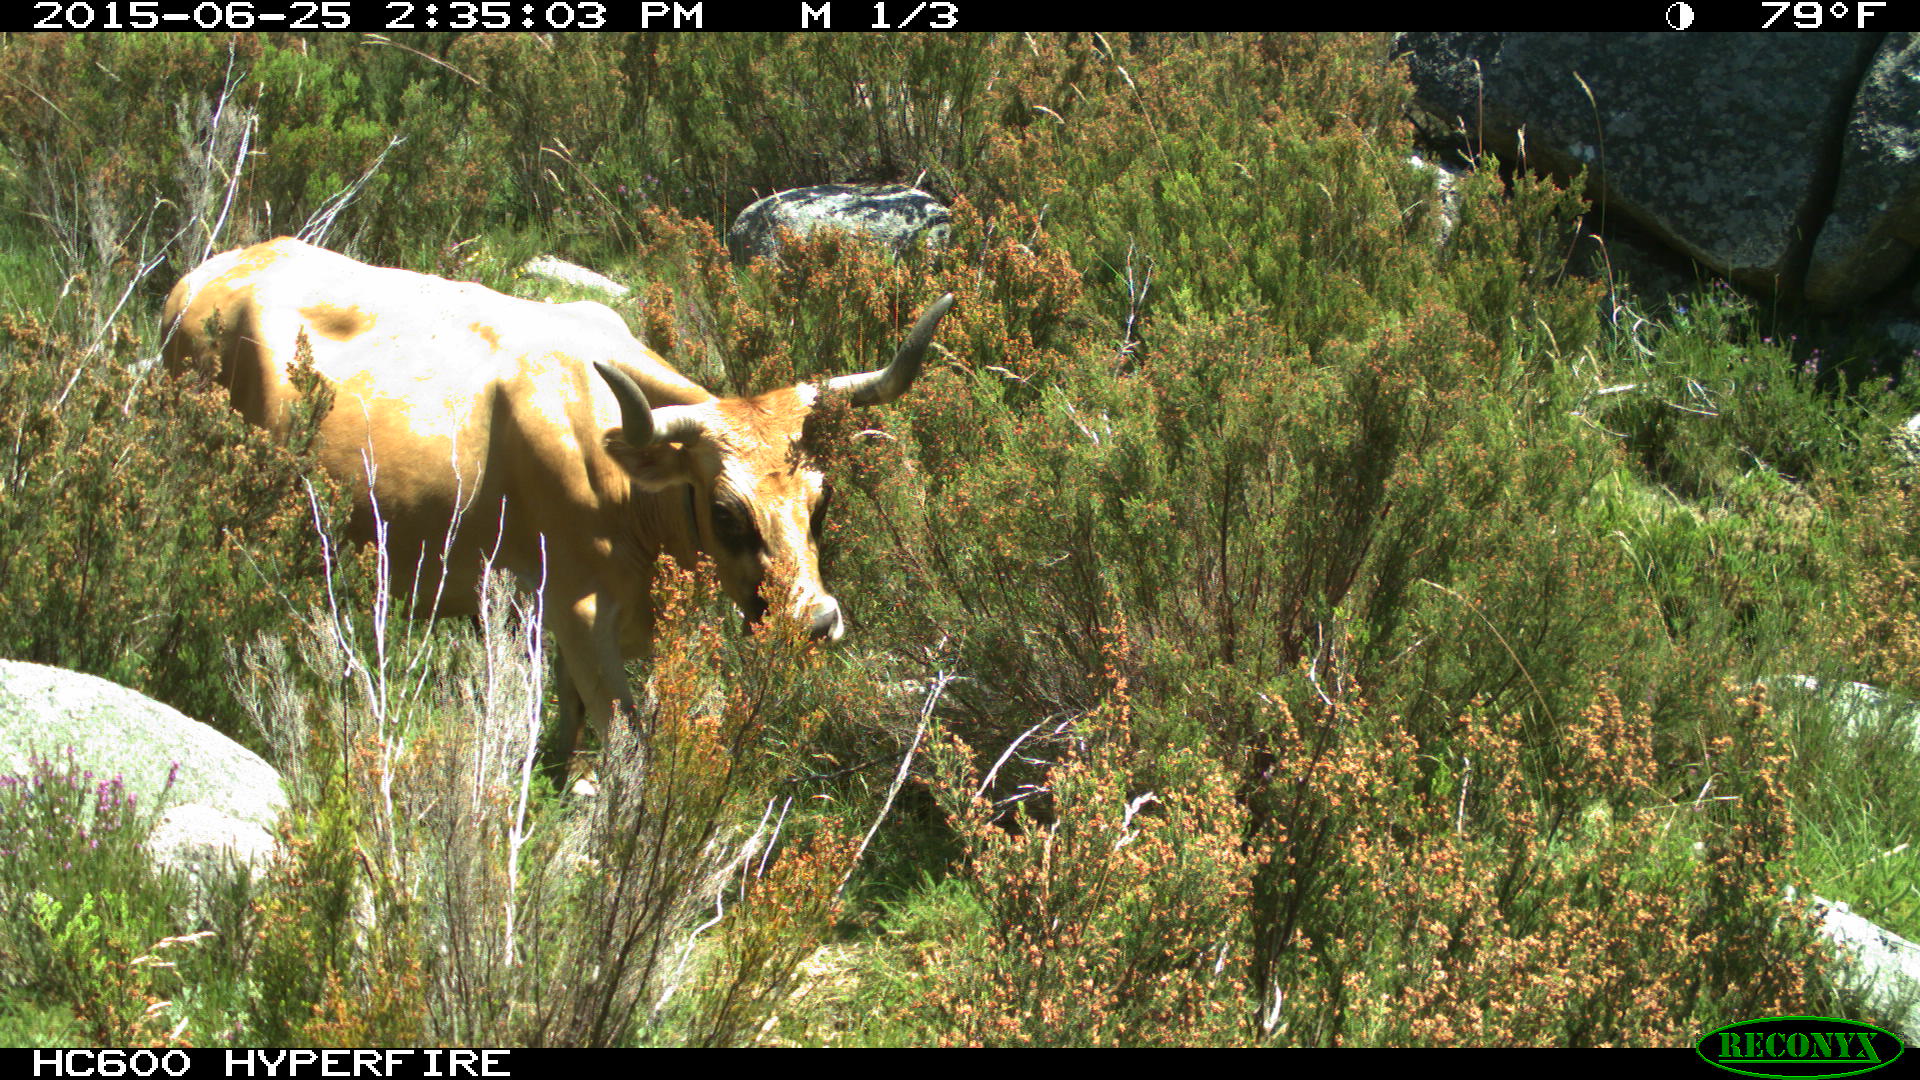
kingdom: Animalia
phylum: Chordata
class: Mammalia
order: Artiodactyla
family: Bovidae
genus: Bos
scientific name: Bos taurus
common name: Domesticated cattle
